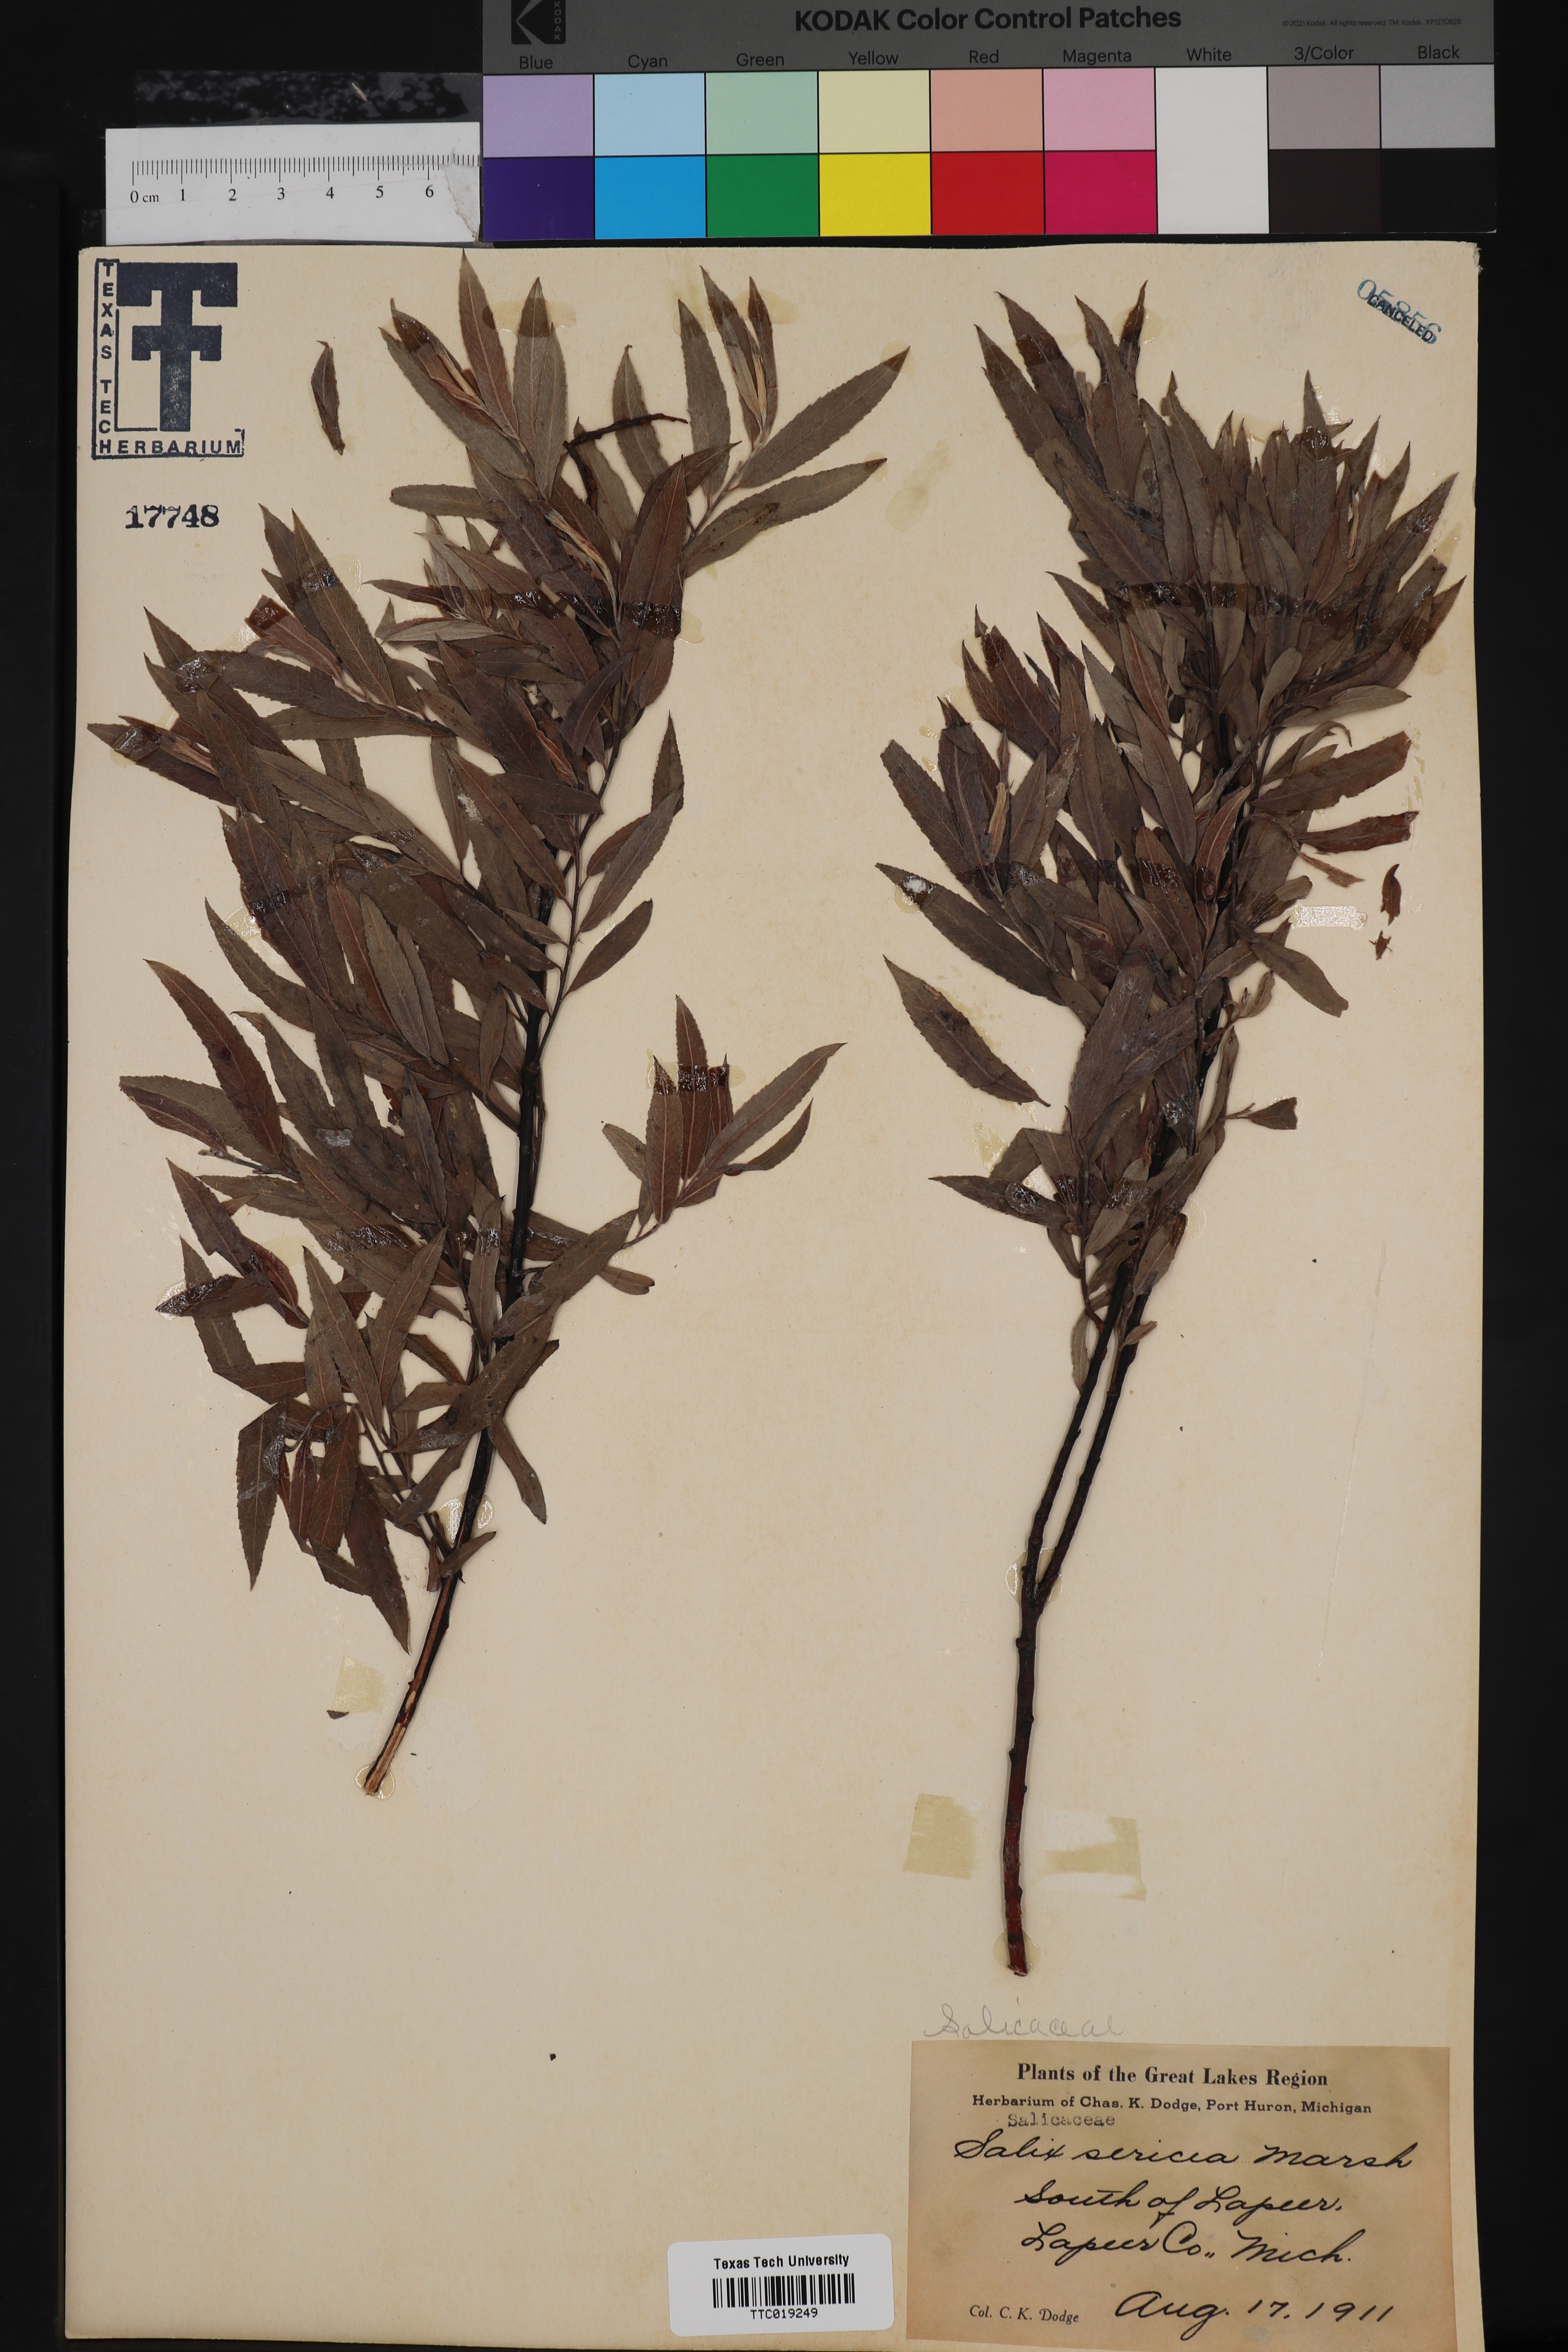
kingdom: Plantae
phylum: Tracheophyta
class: Magnoliopsida
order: Malpighiales
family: Salicaceae
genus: Salix
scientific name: Salix sericea
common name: Silky willow
